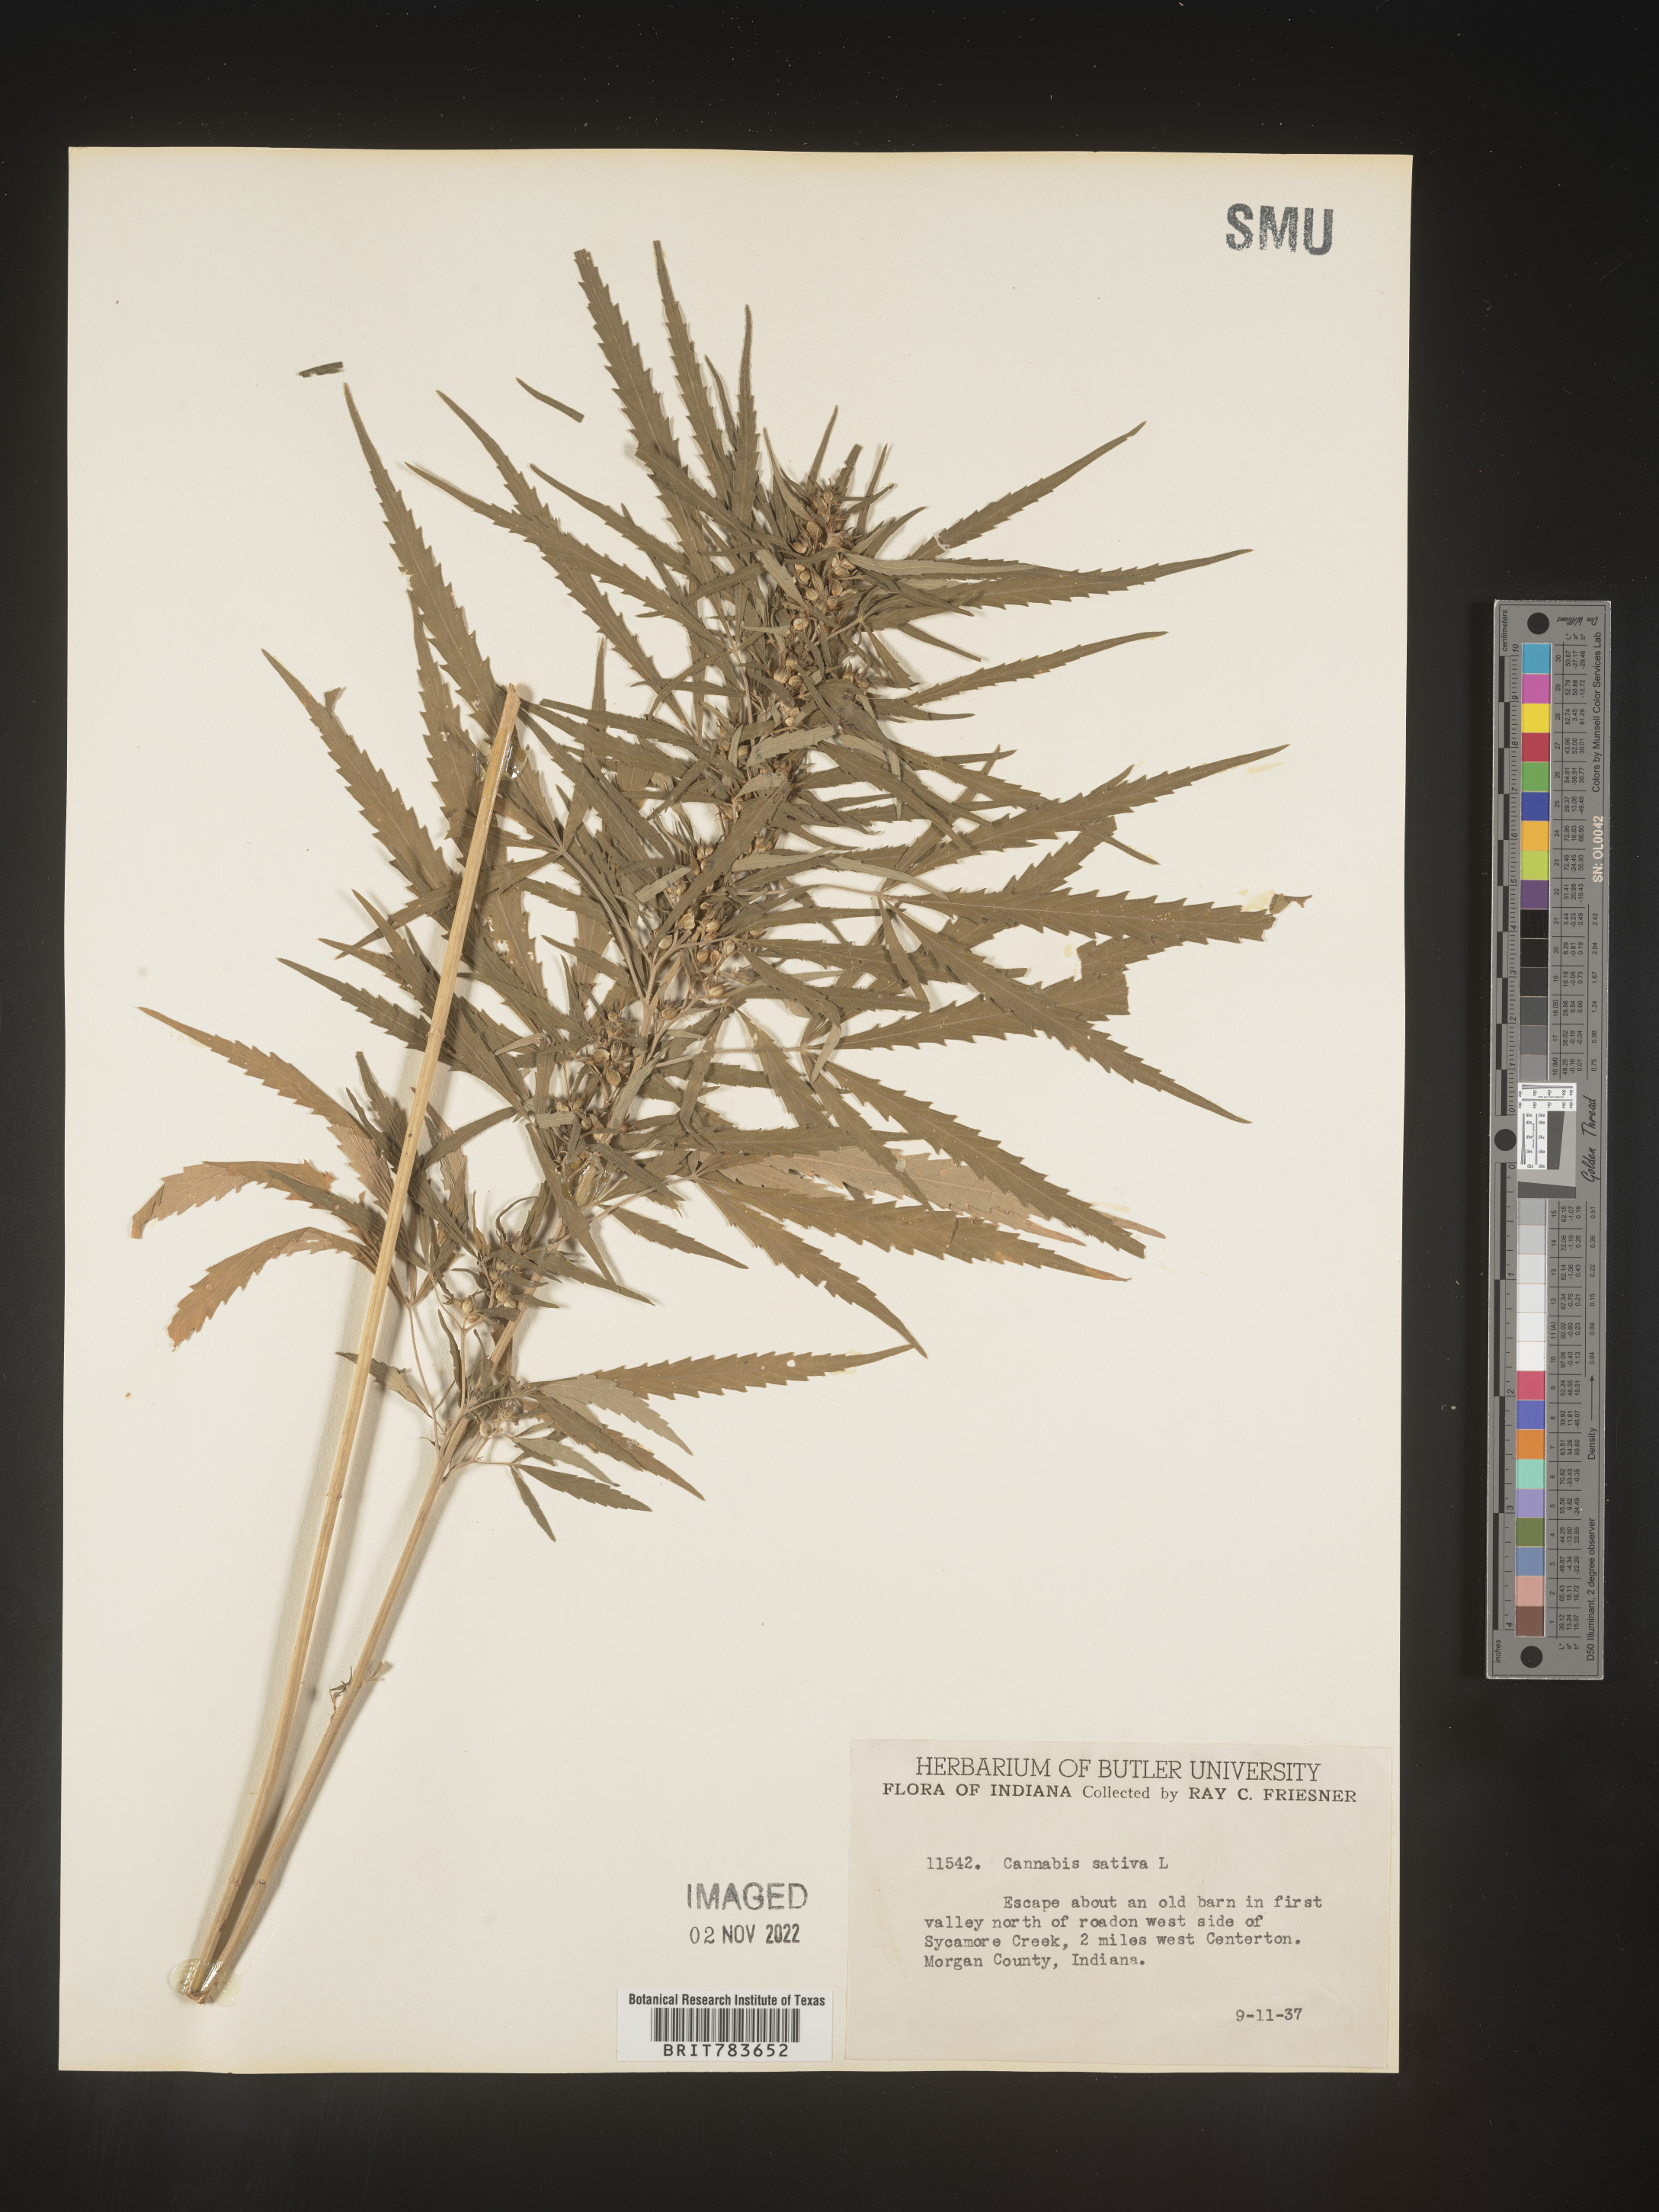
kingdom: Plantae
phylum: Tracheophyta
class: Magnoliopsida
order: Rosales
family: Cannabaceae
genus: Cannabis
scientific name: Cannabis sativa
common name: Hemp
